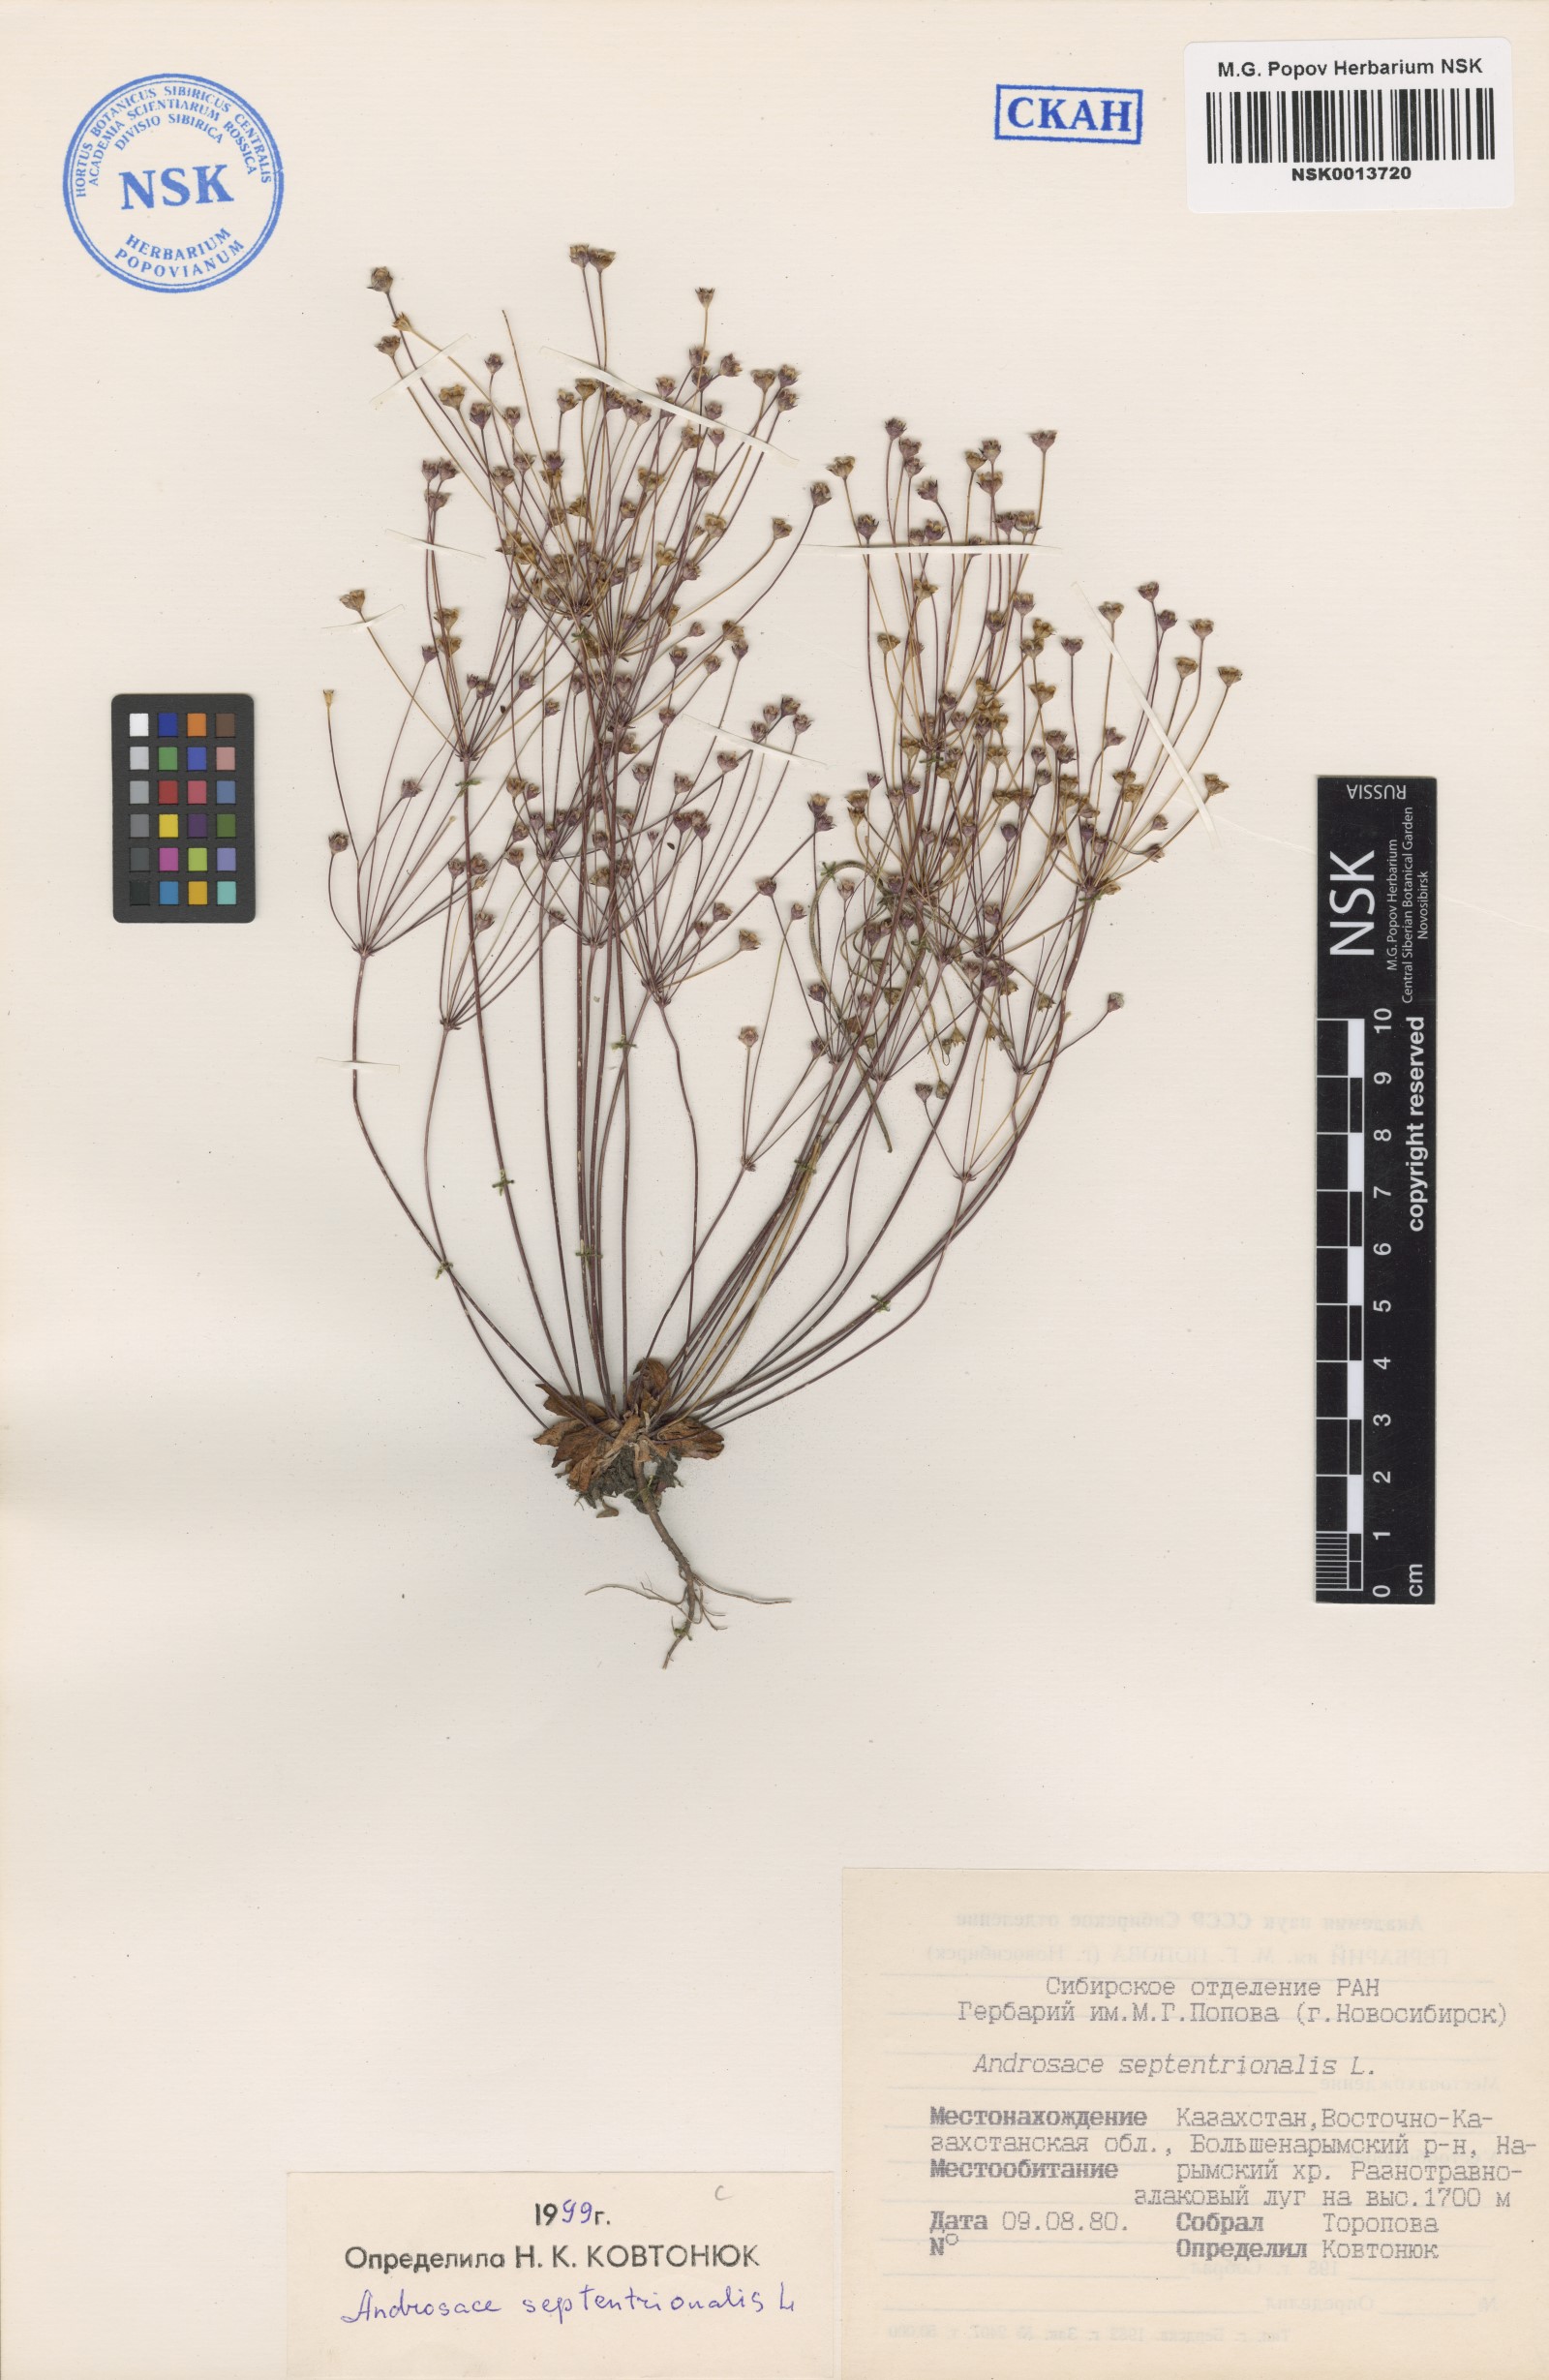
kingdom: Plantae
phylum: Tracheophyta
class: Magnoliopsida
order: Ericales
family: Primulaceae
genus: Androsace
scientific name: Androsace septentrionalis
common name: Hairy northern fairy-candelabra
